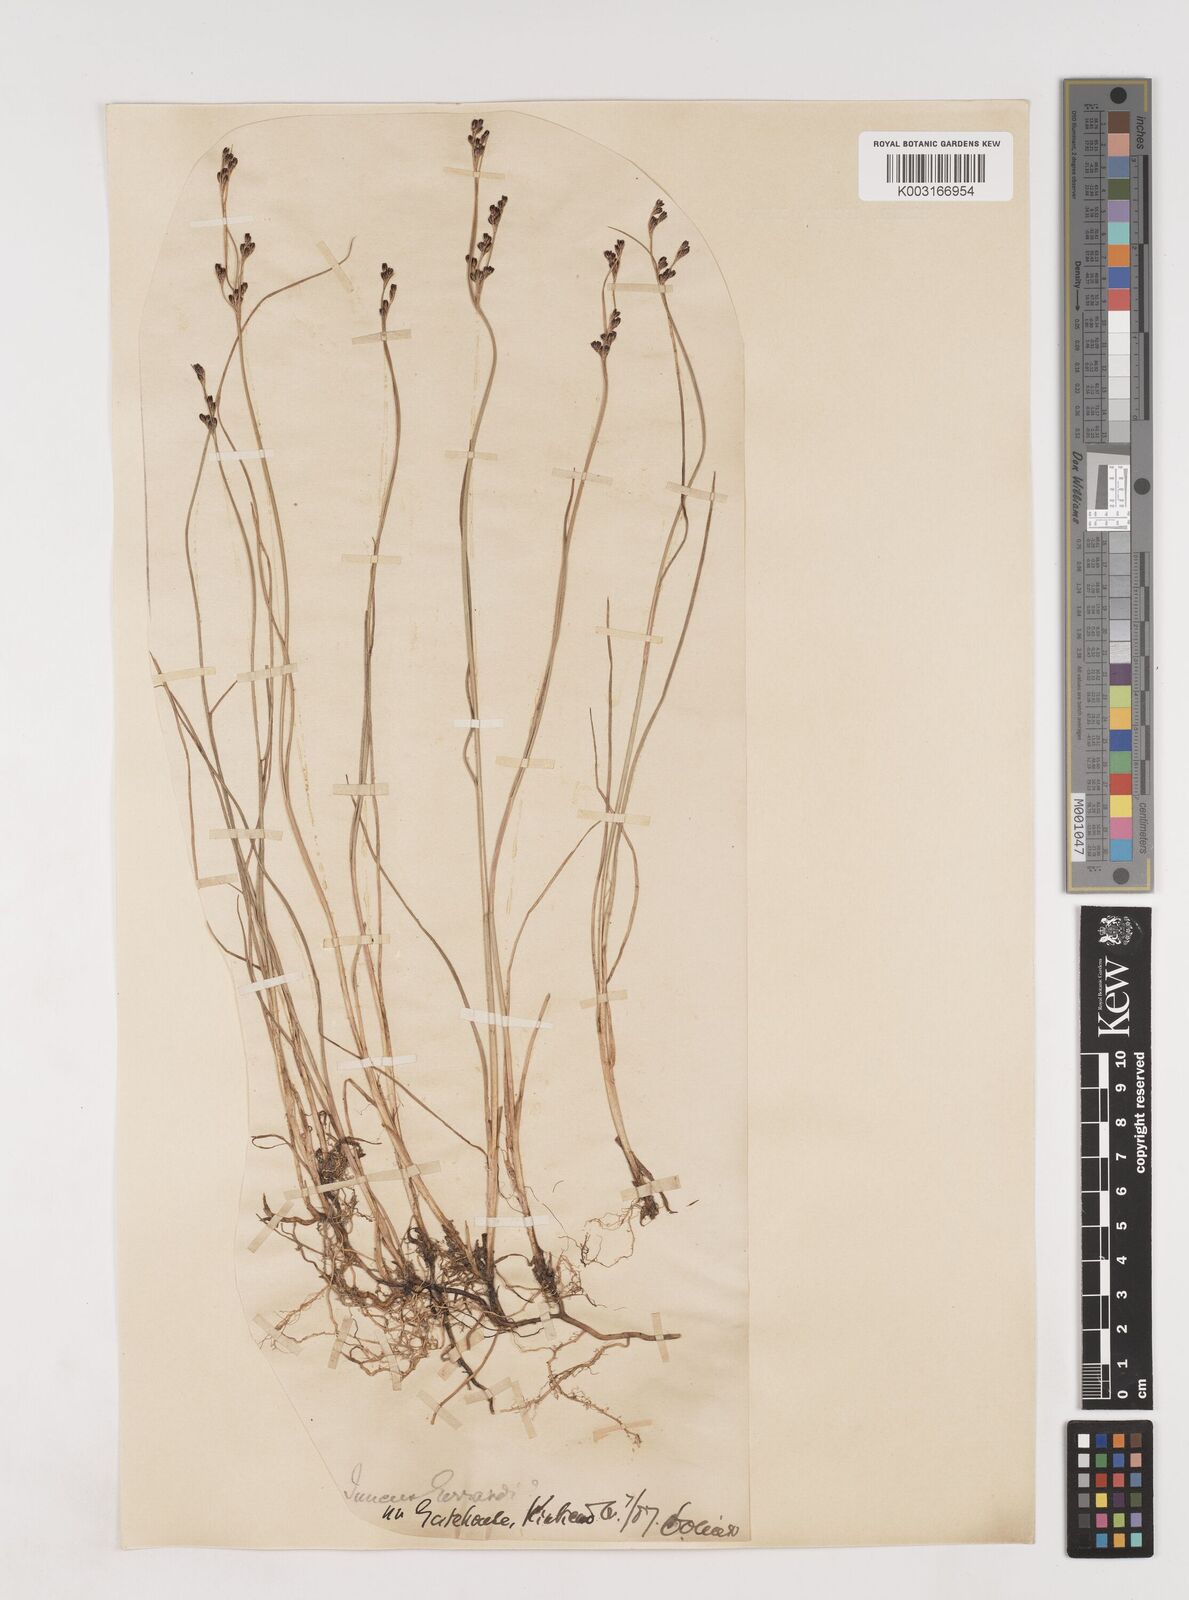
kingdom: Plantae
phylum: Tracheophyta
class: Liliopsida
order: Poales
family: Juncaceae
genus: Juncus
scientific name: Juncus gerardi
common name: Saltmarsh rush
